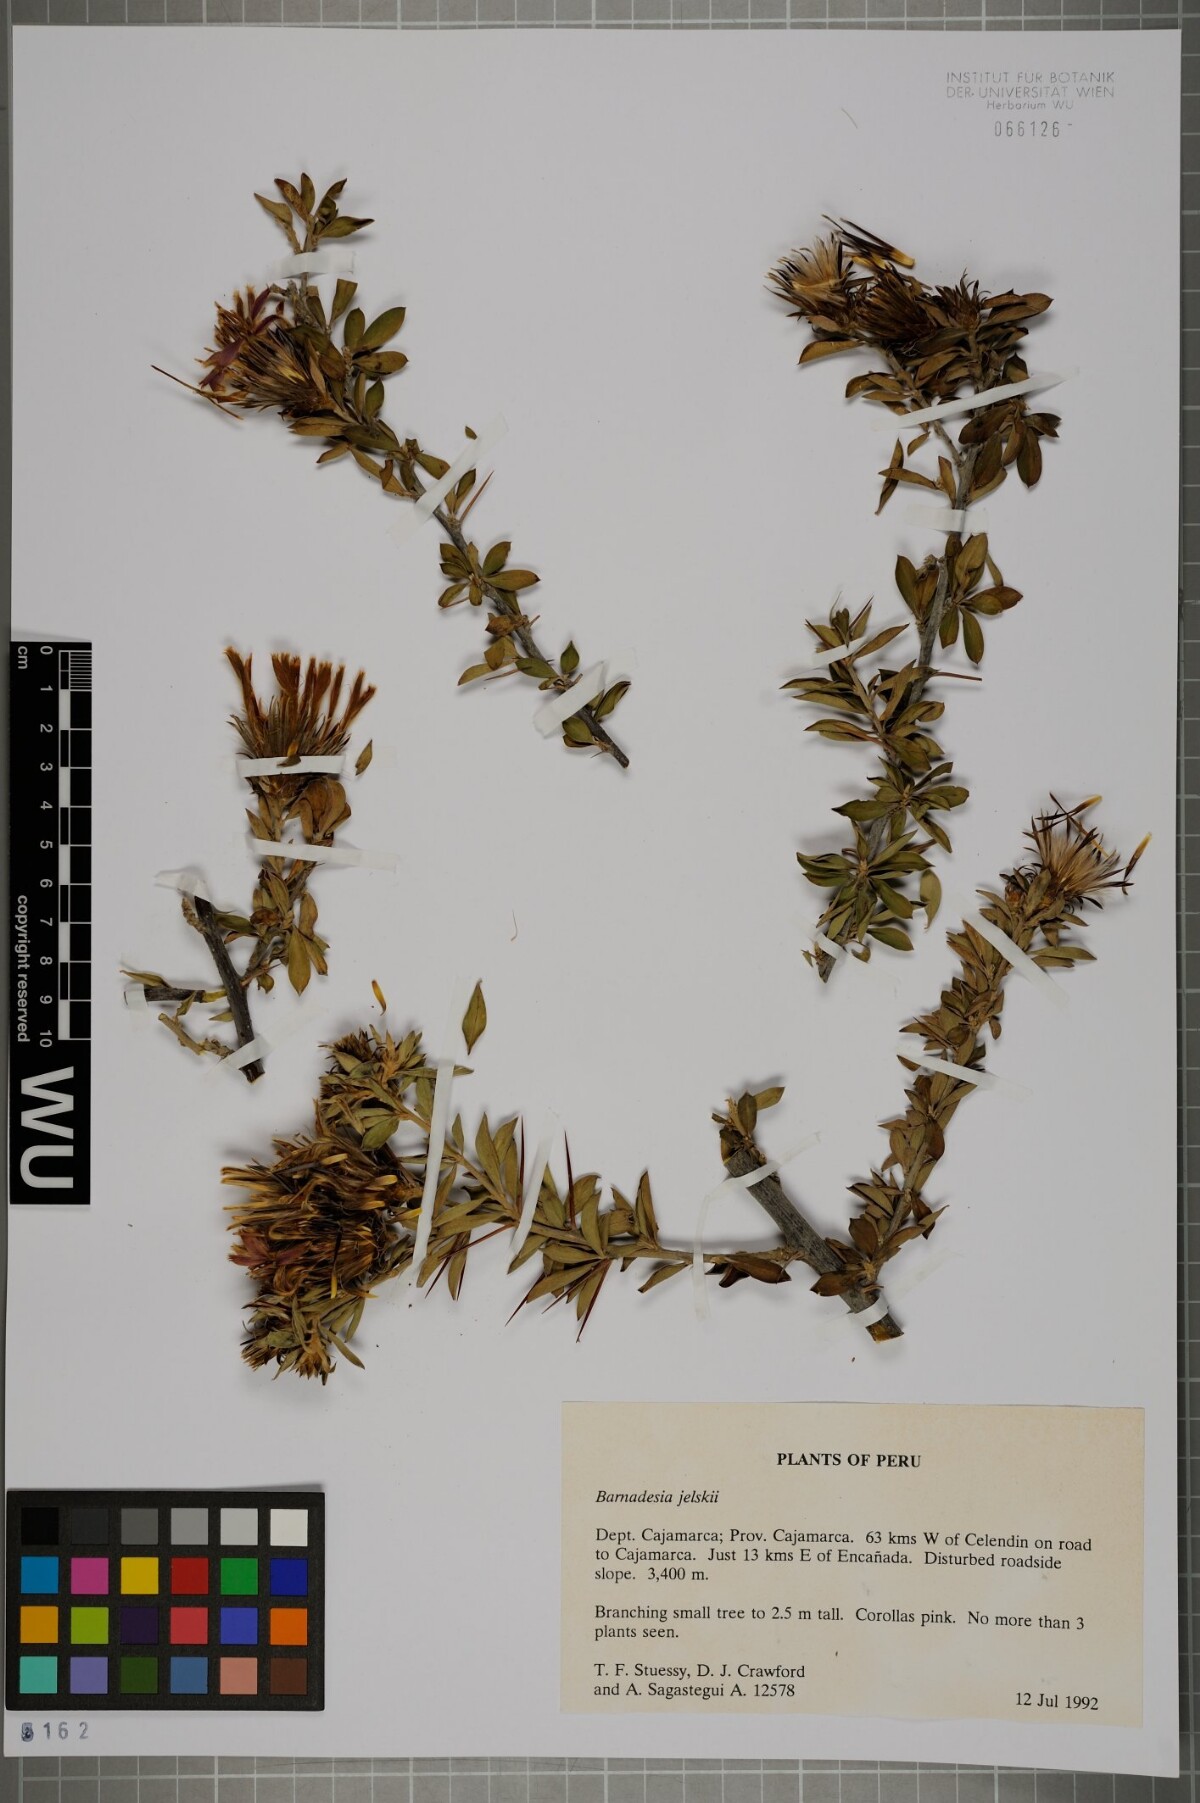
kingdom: Plantae
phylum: Tracheophyta
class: Magnoliopsida
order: Asterales
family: Asteraceae
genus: Barnadesia
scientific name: Barnadesia arborea
